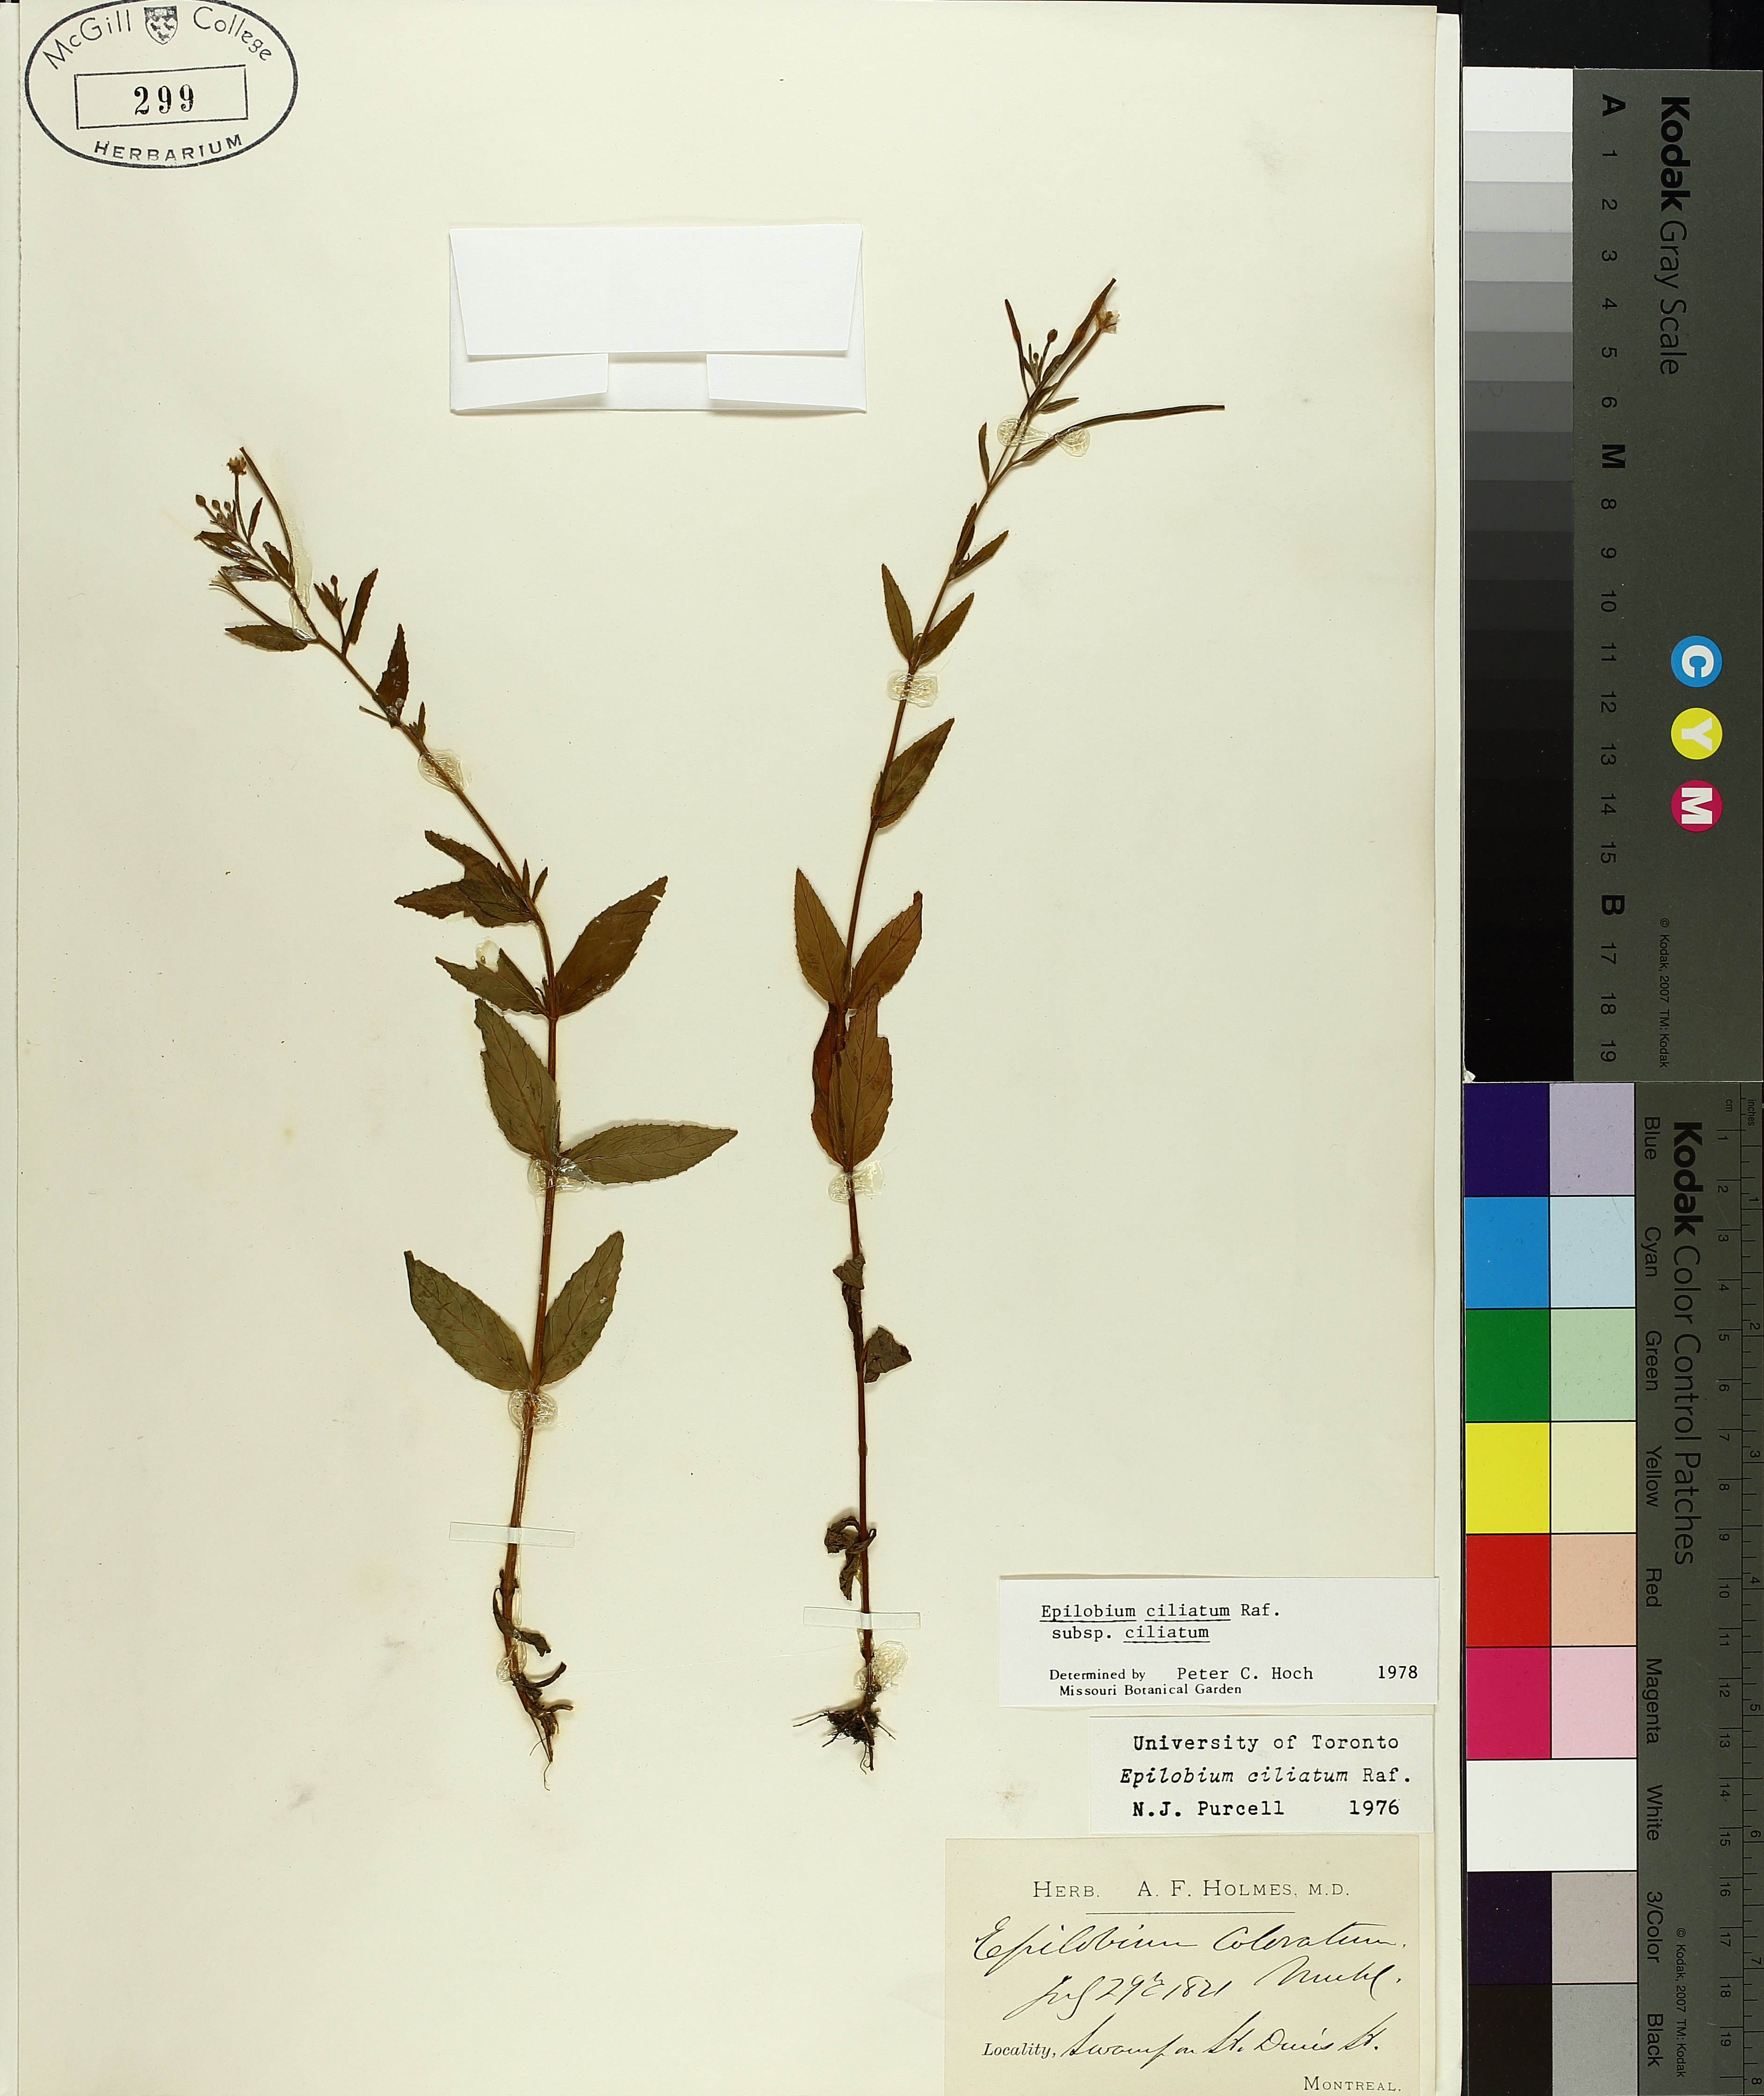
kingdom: Plantae
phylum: Tracheophyta
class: Magnoliopsida
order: Myrtales
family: Onagraceae
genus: Epilobium
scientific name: Epilobium ciliatum
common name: American willowherb
